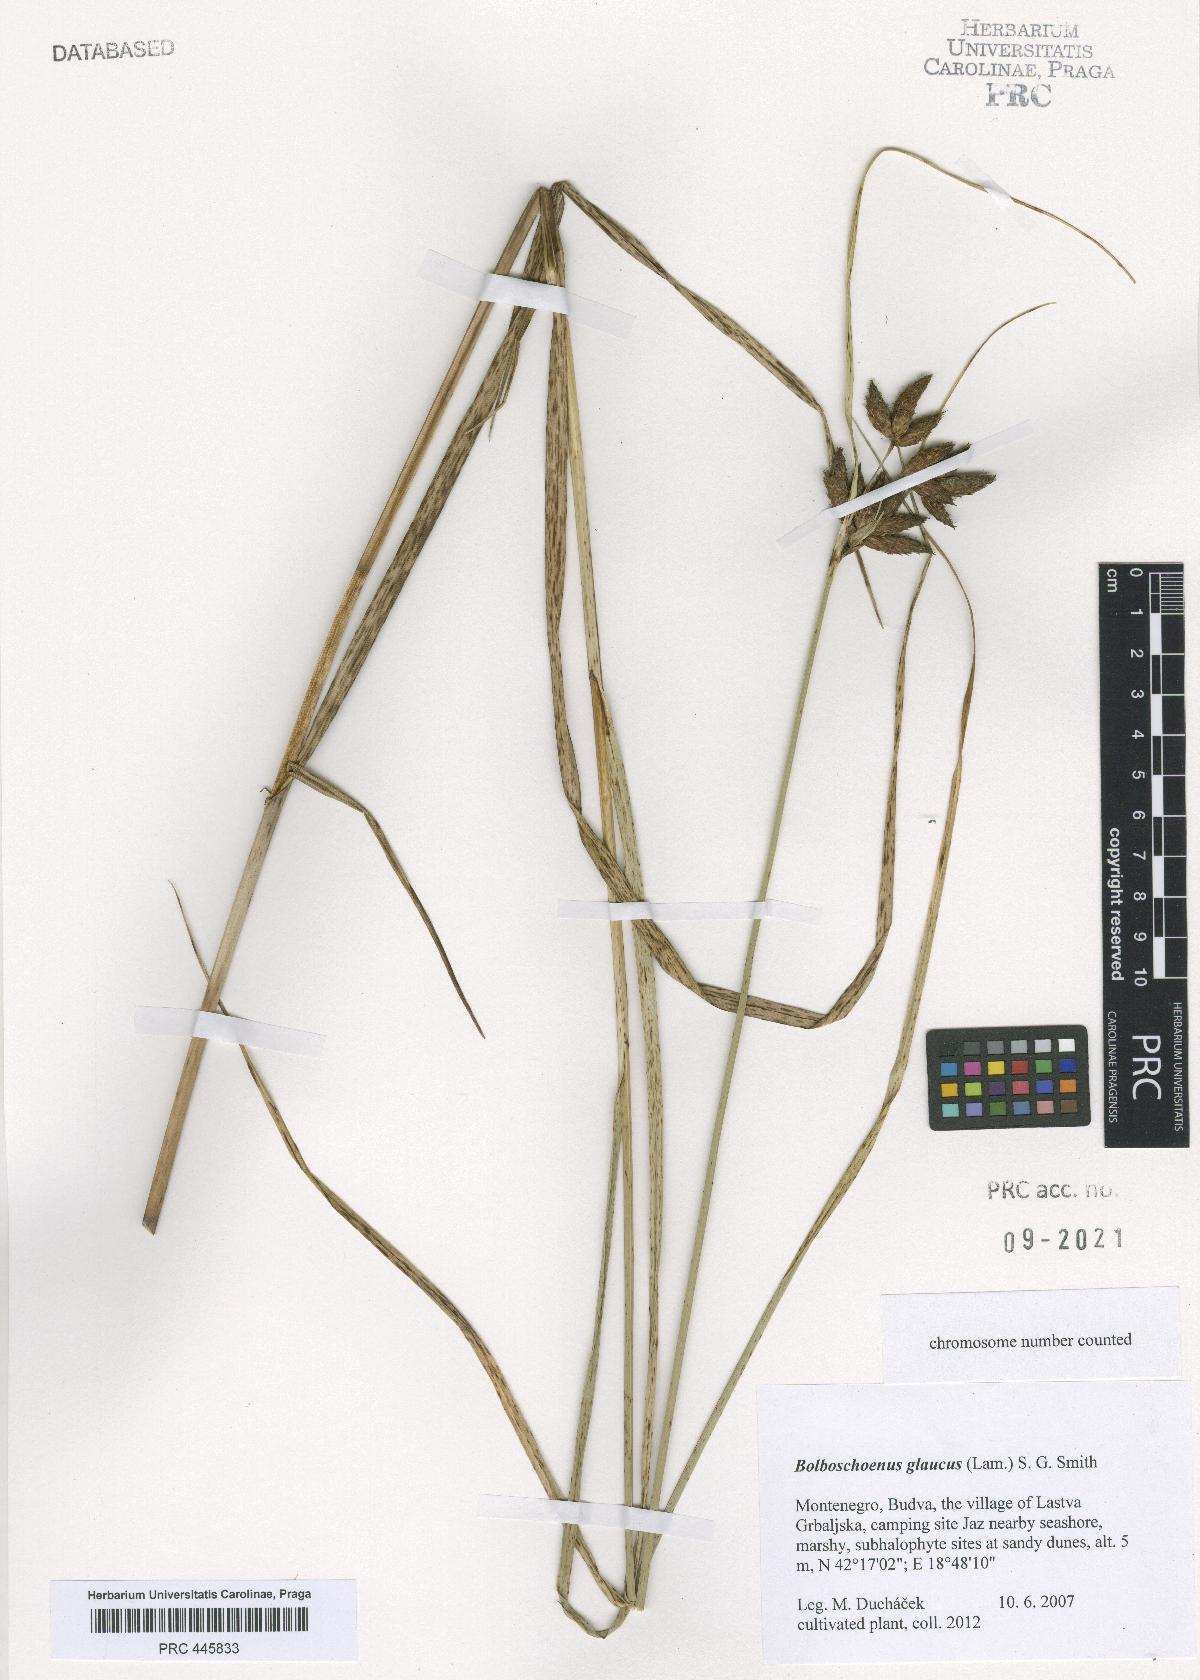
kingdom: Plantae
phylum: Tracheophyta
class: Liliopsida
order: Poales
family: Cyperaceae
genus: Bolboschoenus
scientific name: Bolboschoenus glaucus
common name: Tuberous bulrush
